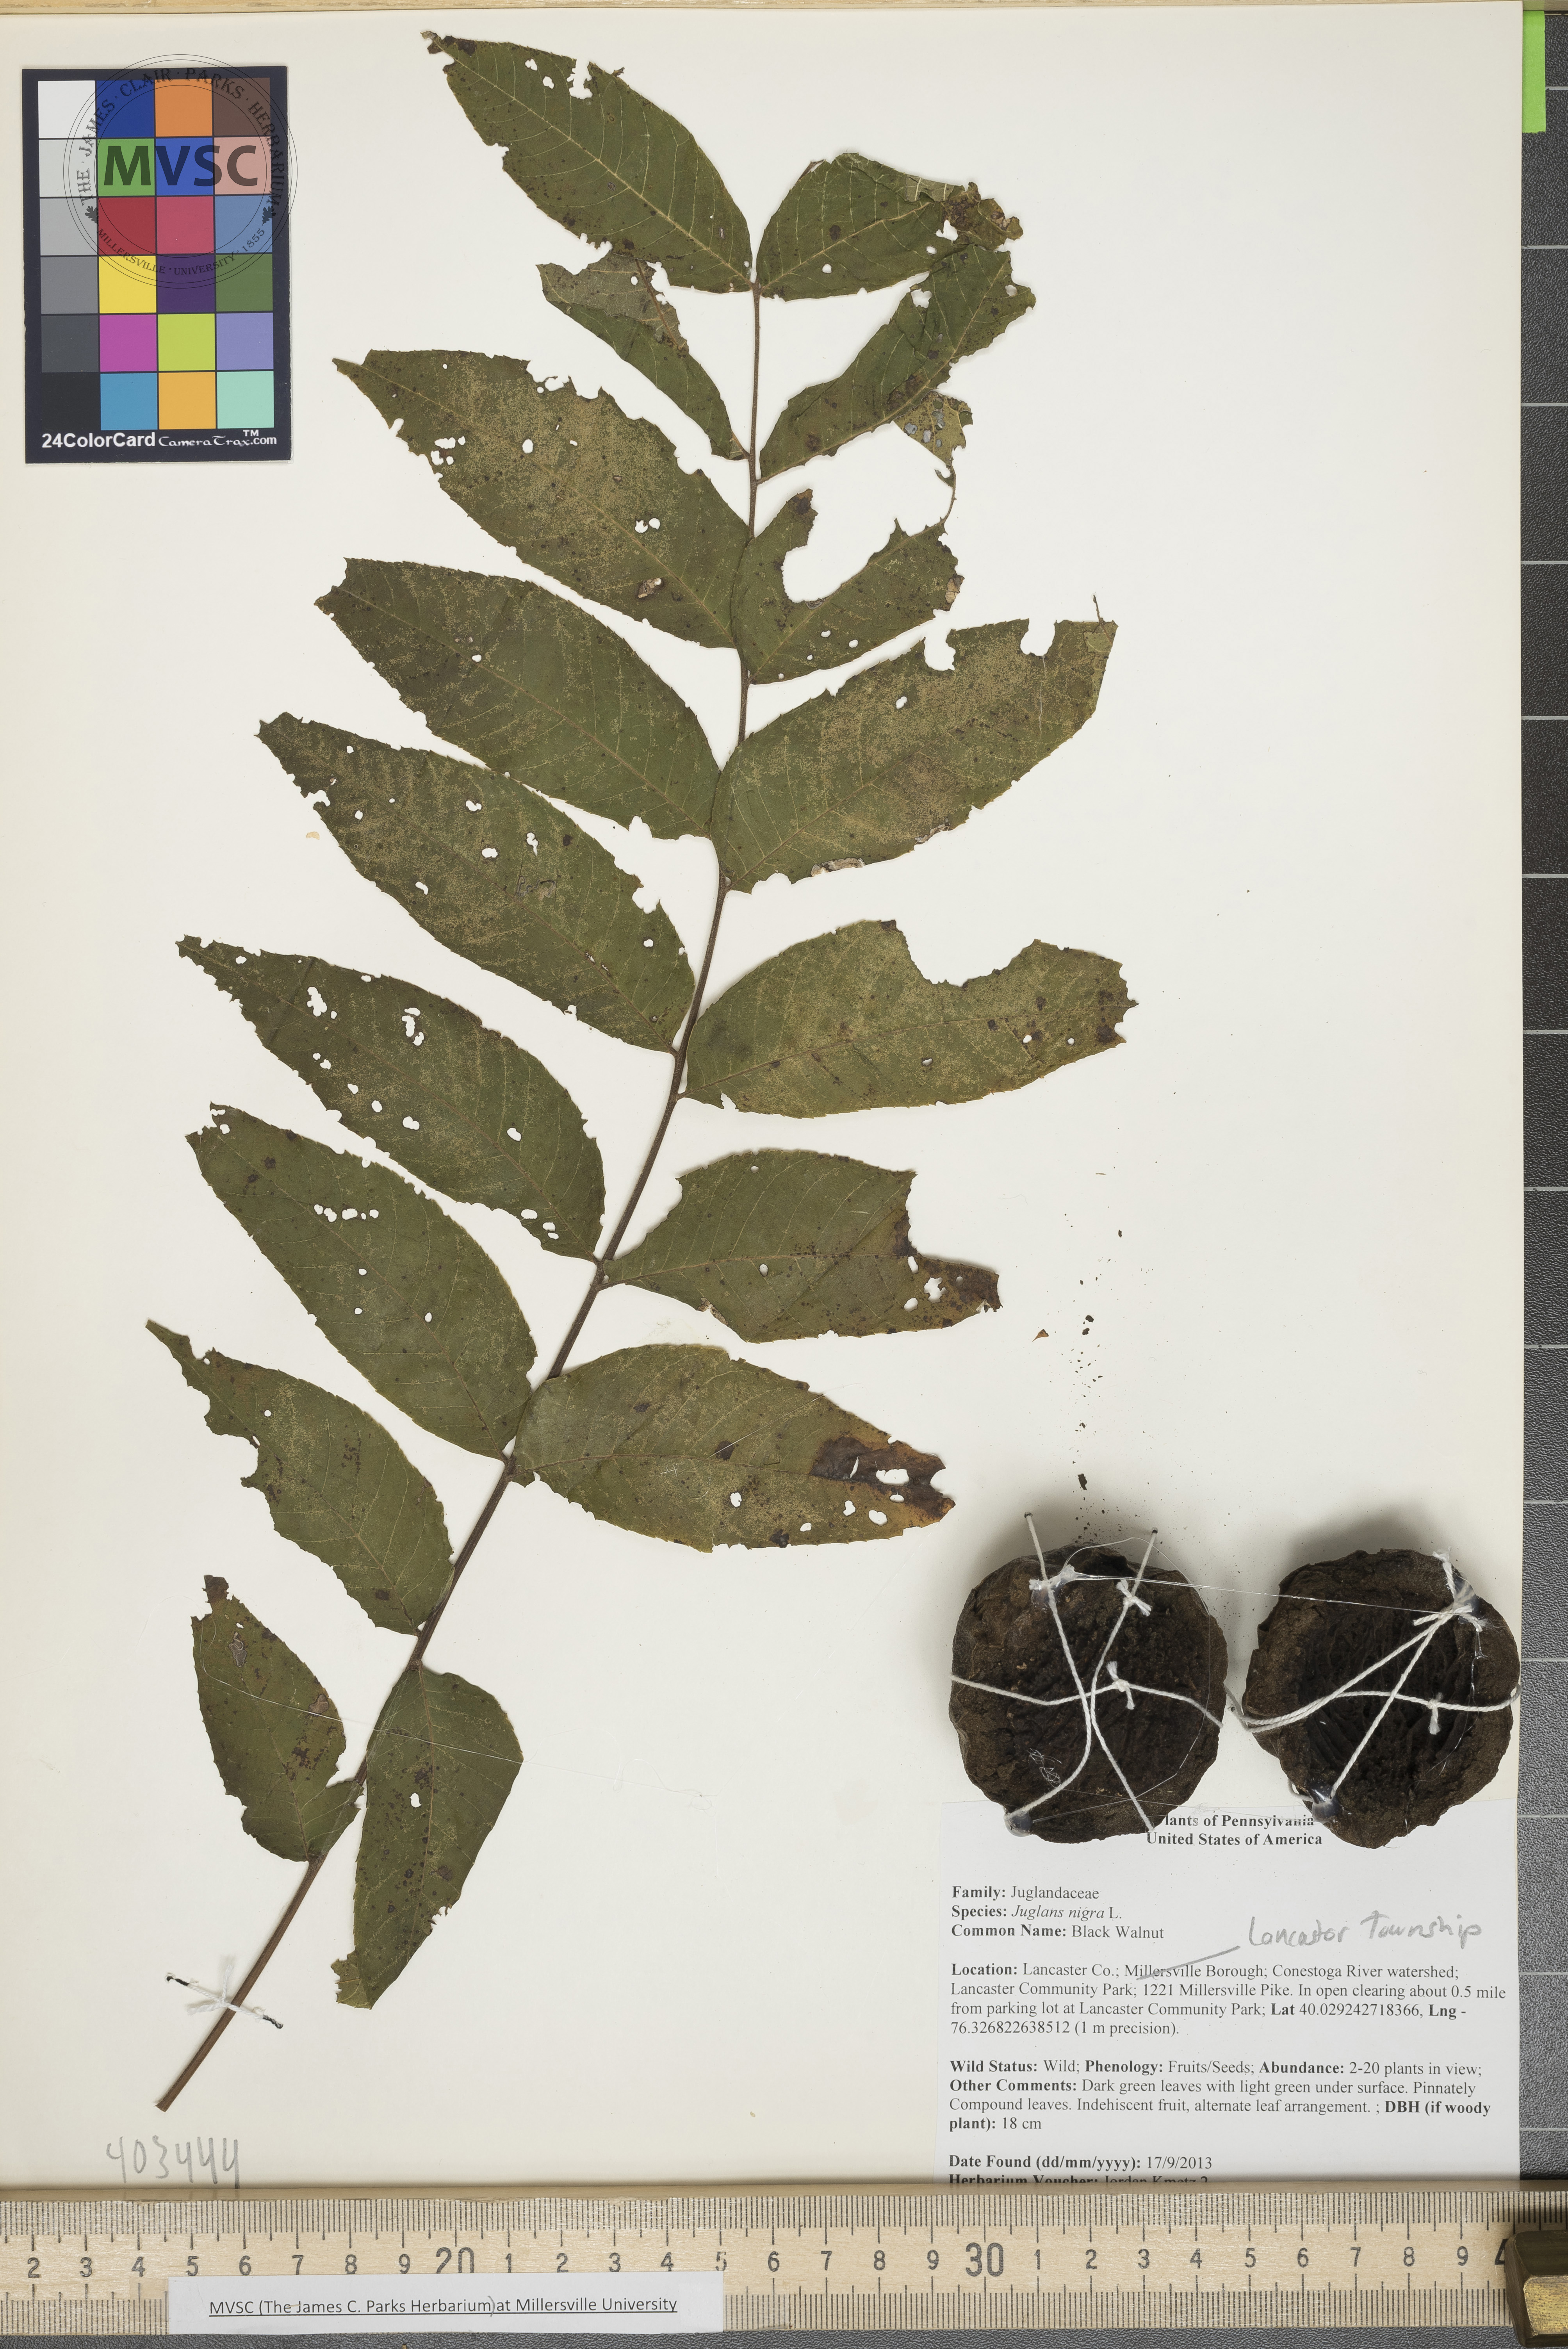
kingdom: Plantae
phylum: Tracheophyta
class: Magnoliopsida
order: Fagales
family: Juglandaceae
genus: Juglans
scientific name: Juglans nigra
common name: Black Walnut
